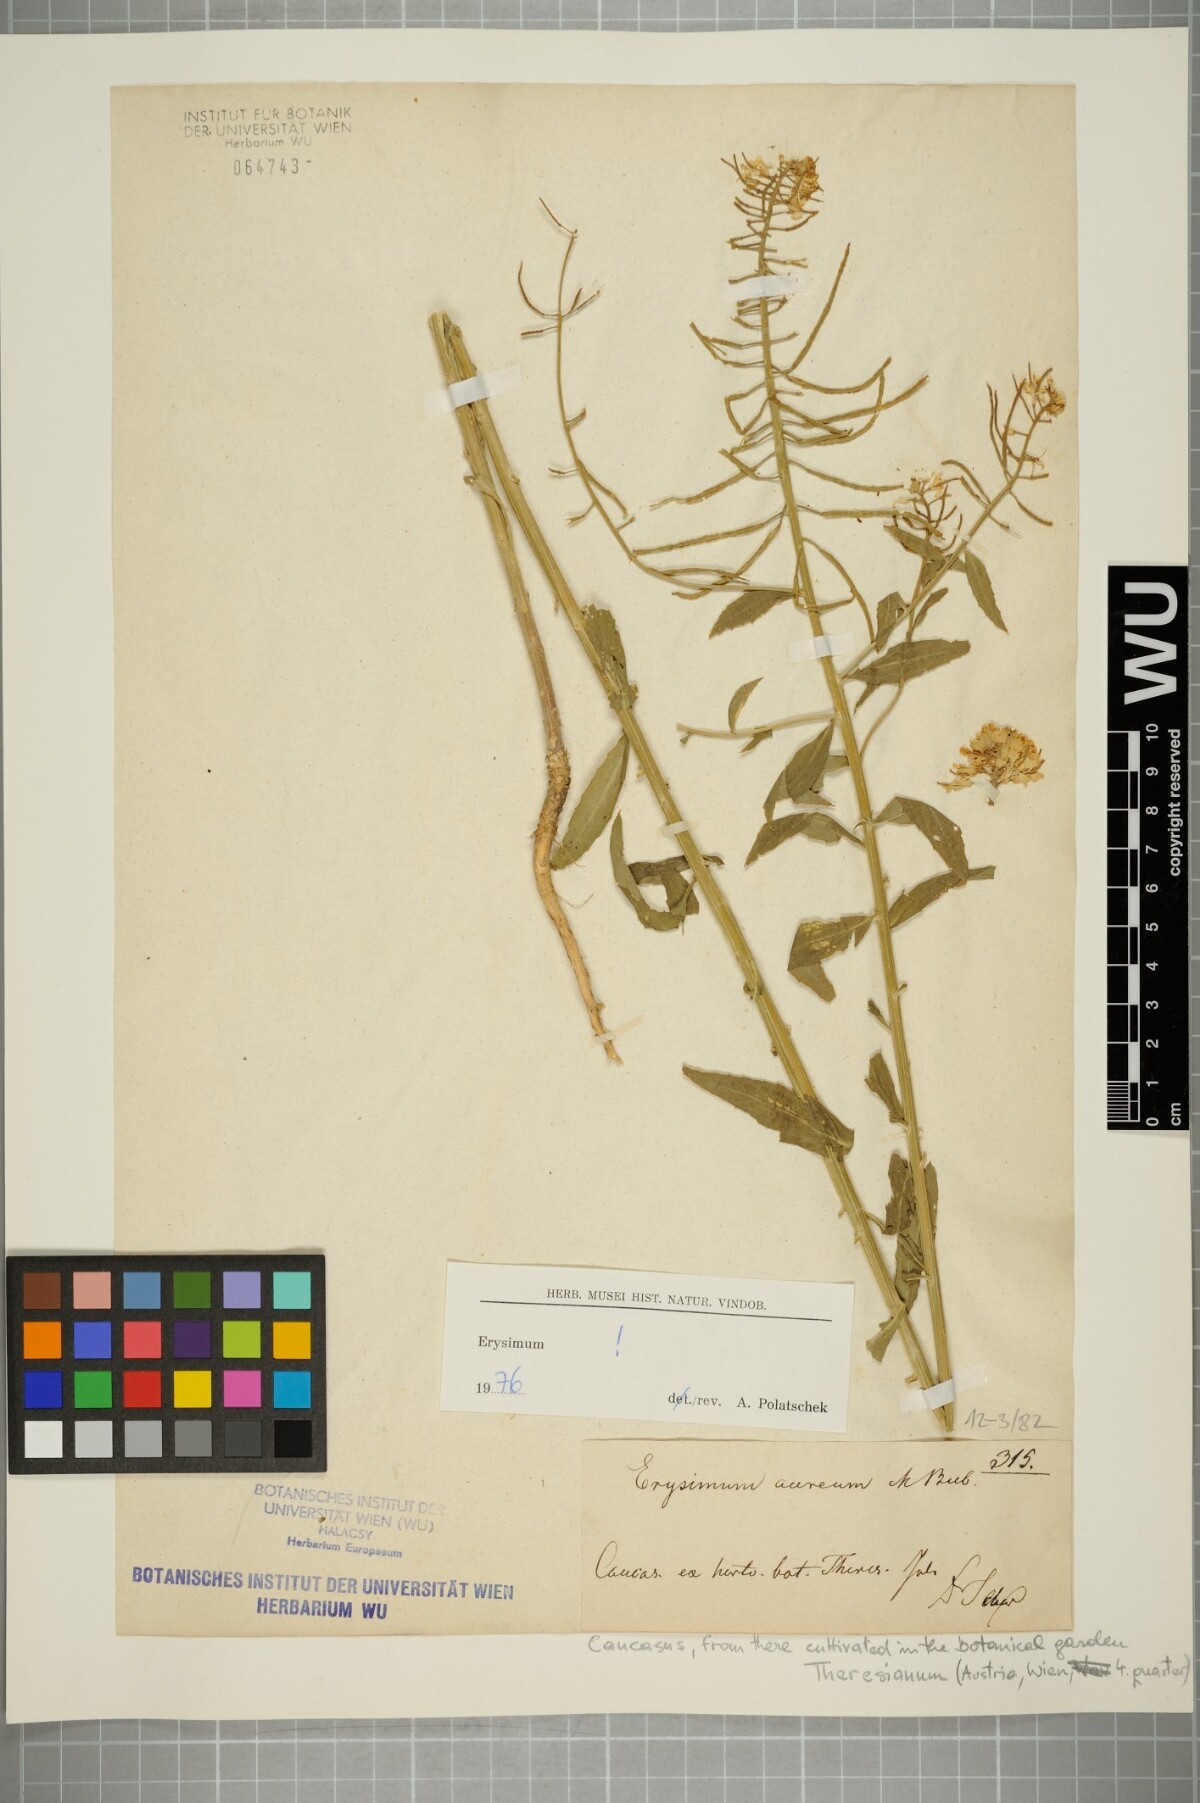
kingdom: Plantae
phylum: Tracheophyta
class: Magnoliopsida
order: Brassicales
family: Brassicaceae
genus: Erysimum
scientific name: Erysimum aureum
